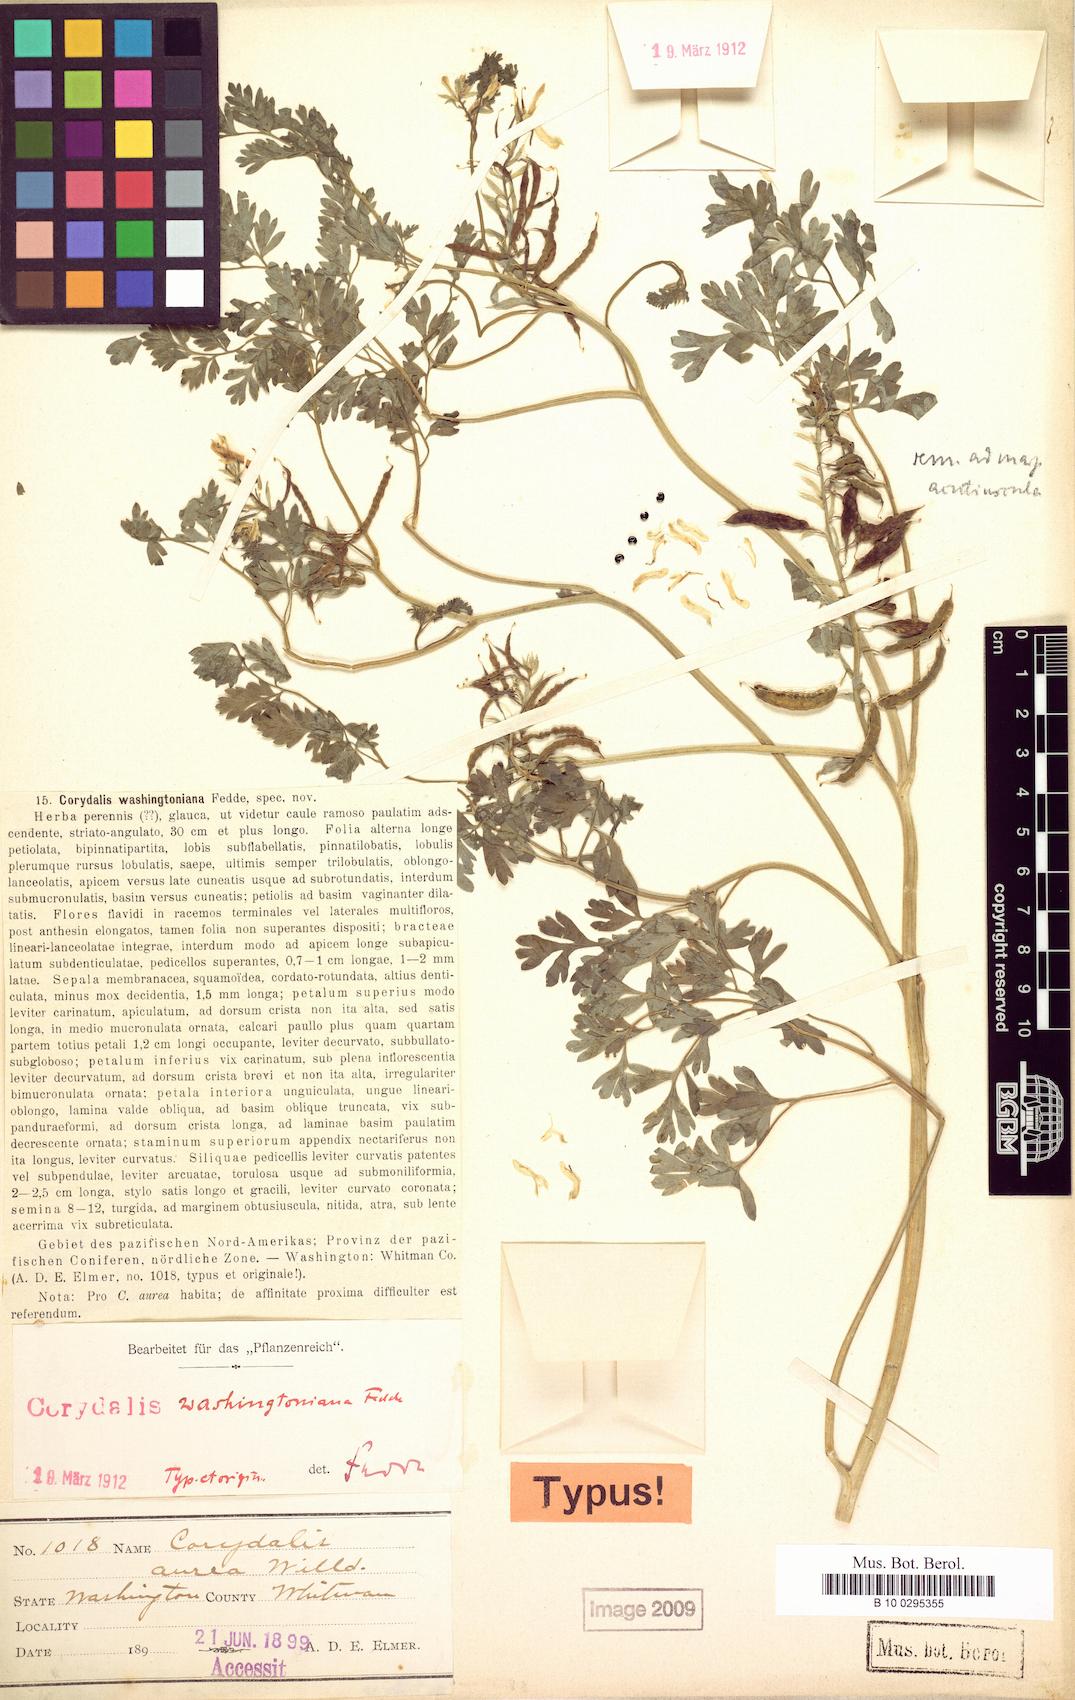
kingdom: Plantae
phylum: Tracheophyta
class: Magnoliopsida
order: Ranunculales
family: Papaveraceae
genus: Corydalis
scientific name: Corydalis aurea
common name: Golden corydalis
